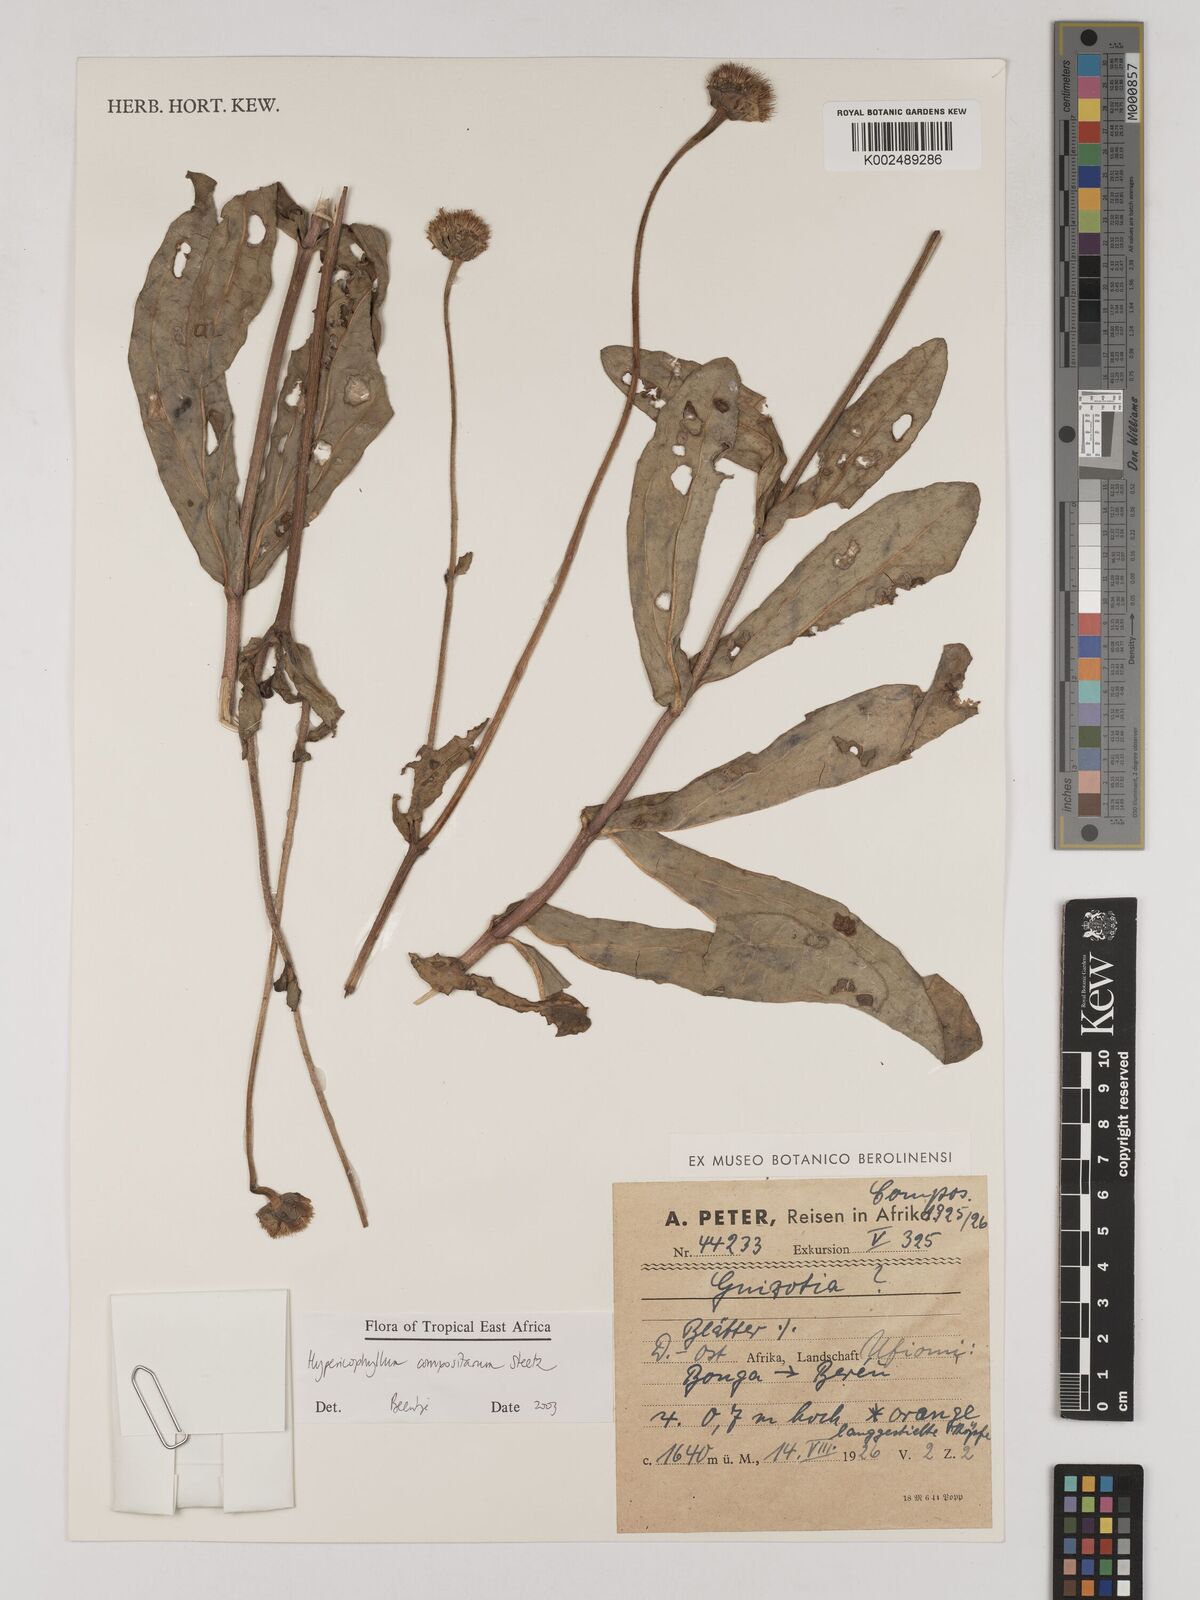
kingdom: Plantae
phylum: Tracheophyta
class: Magnoliopsida
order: Asterales
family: Asteraceae
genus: Hypericophyllum
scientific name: Hypericophyllum compositarum
